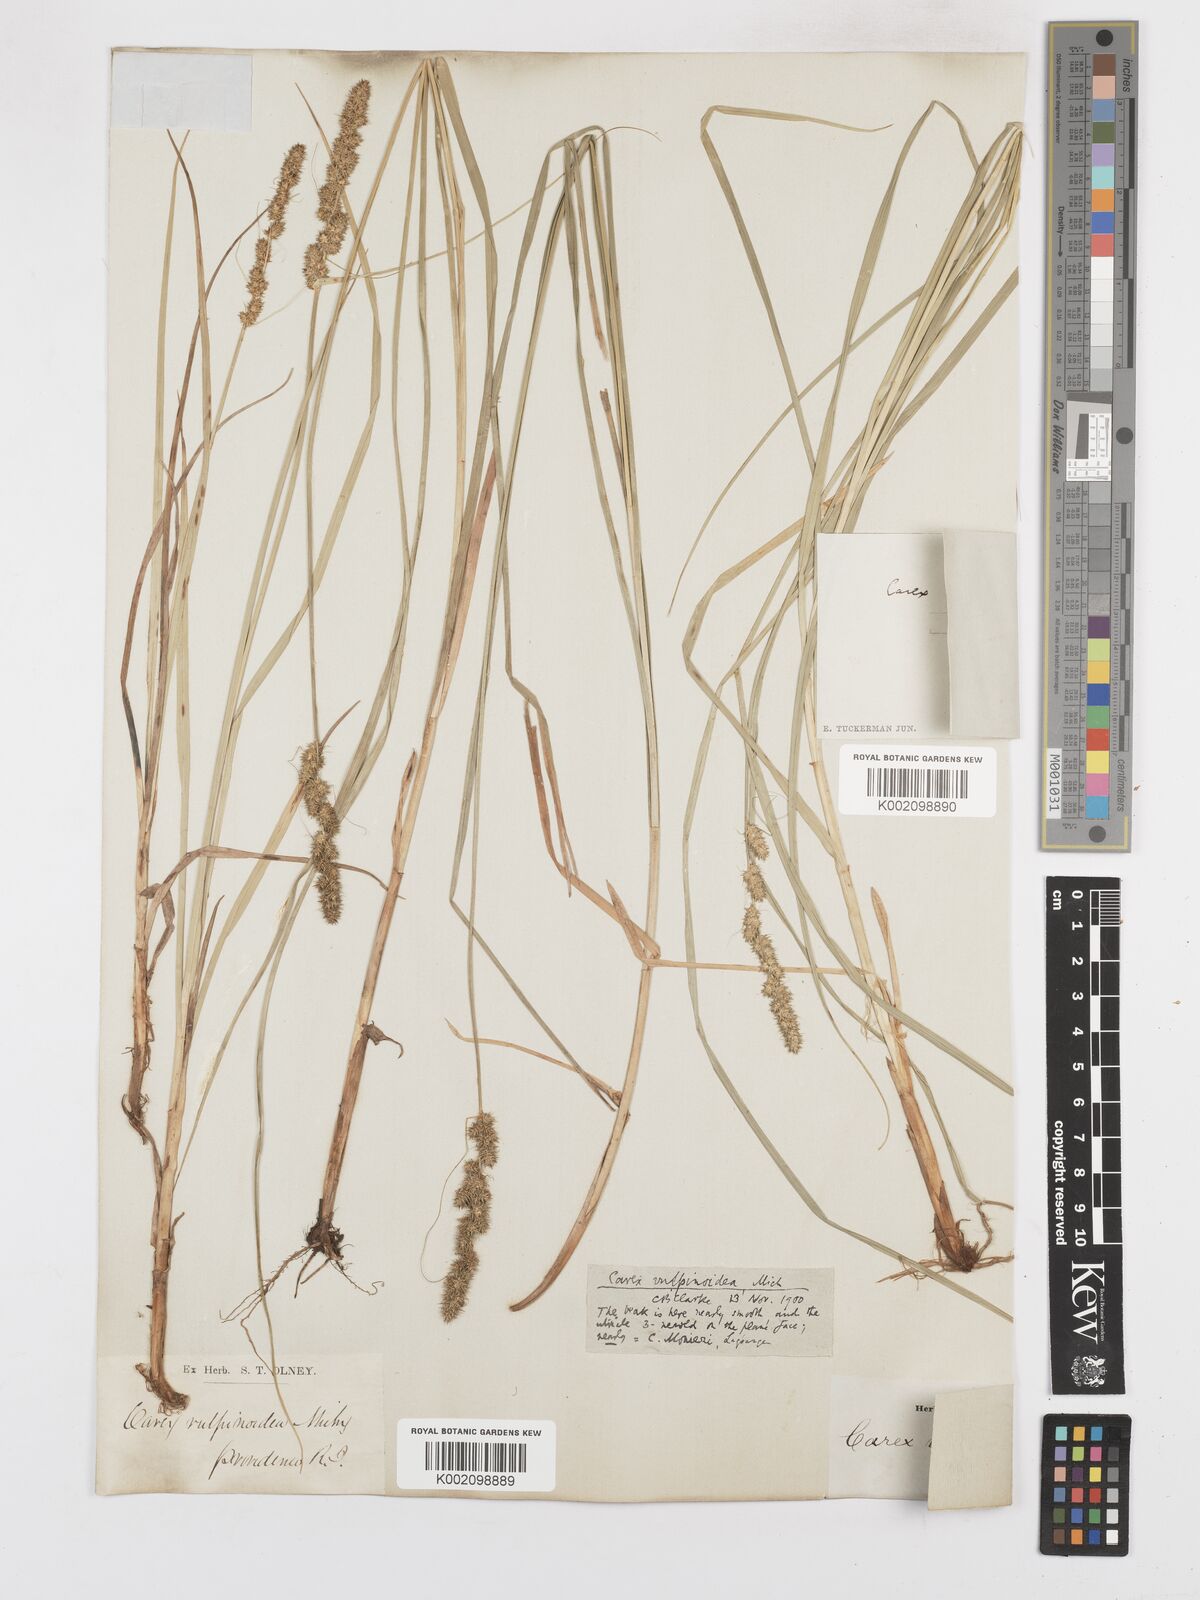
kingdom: Plantae
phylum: Tracheophyta
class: Liliopsida
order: Poales
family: Cyperaceae
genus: Carex
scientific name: Carex vulpinoidea
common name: American fox-sedge
